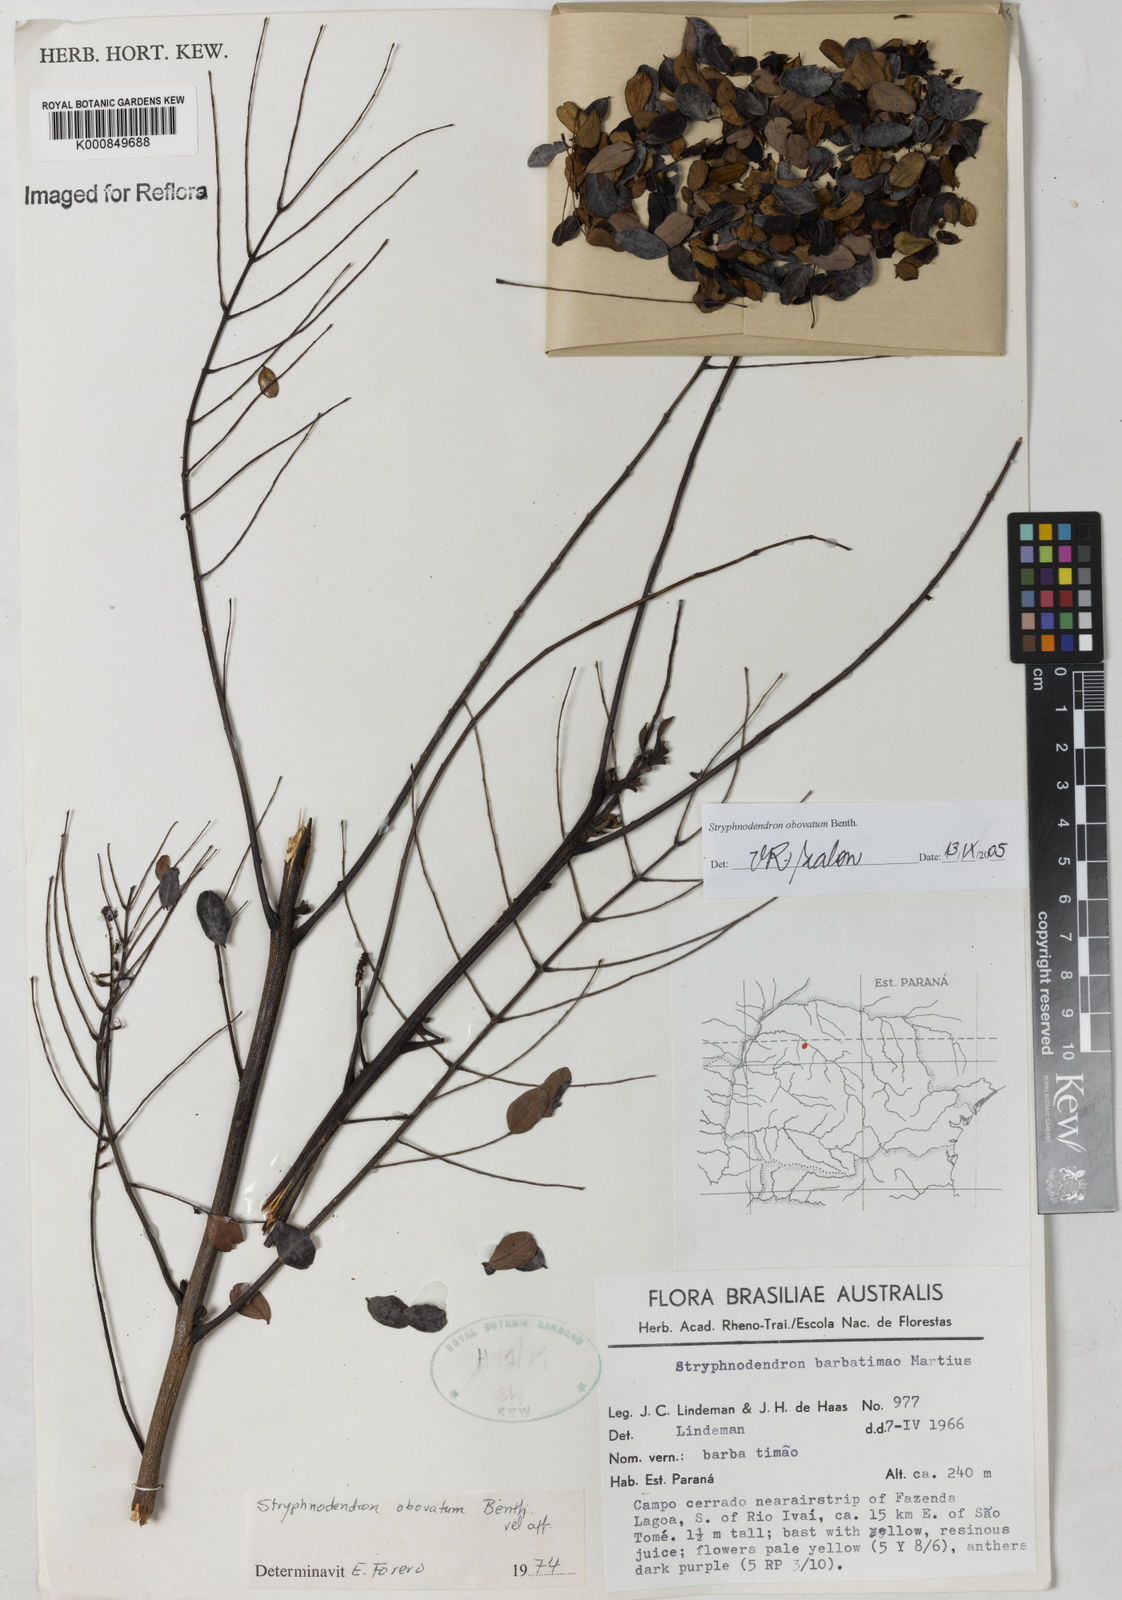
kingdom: Plantae
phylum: Tracheophyta
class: Magnoliopsida
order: Fabales
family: Fabaceae
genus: Stryphnodendron
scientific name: Stryphnodendron rotundifolium
